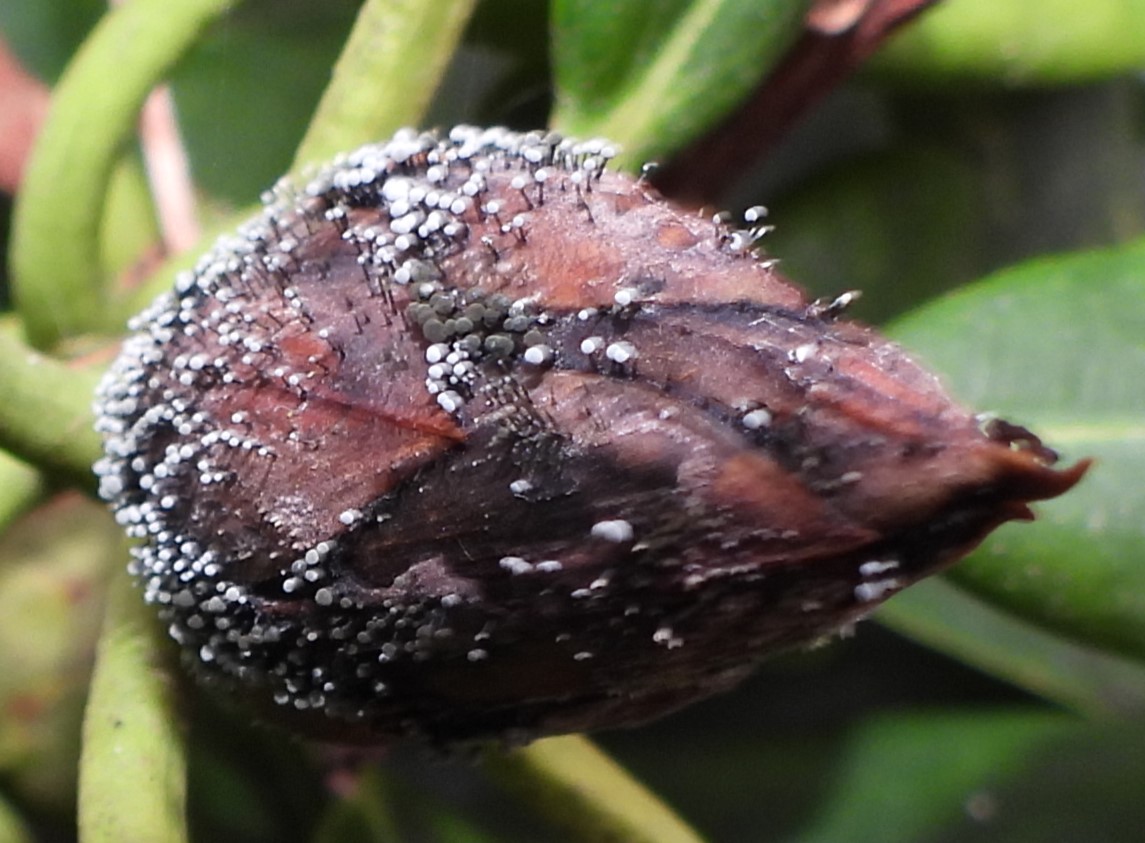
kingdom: Fungi
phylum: Ascomycota
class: Dothideomycetes
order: Pleosporales
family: Melanommataceae
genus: Seifertia
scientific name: Seifertia azaleae
